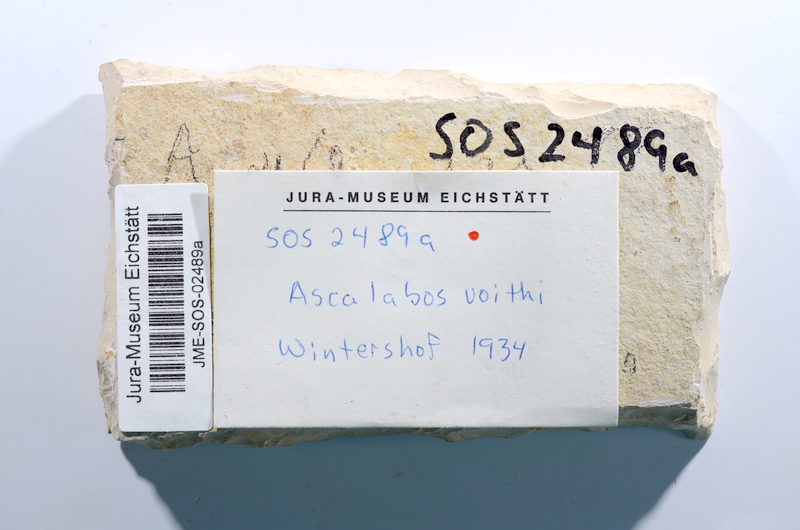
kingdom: Animalia
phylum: Chordata
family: Ascalaboidae
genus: Ascalabos
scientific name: Ascalabos voithii
